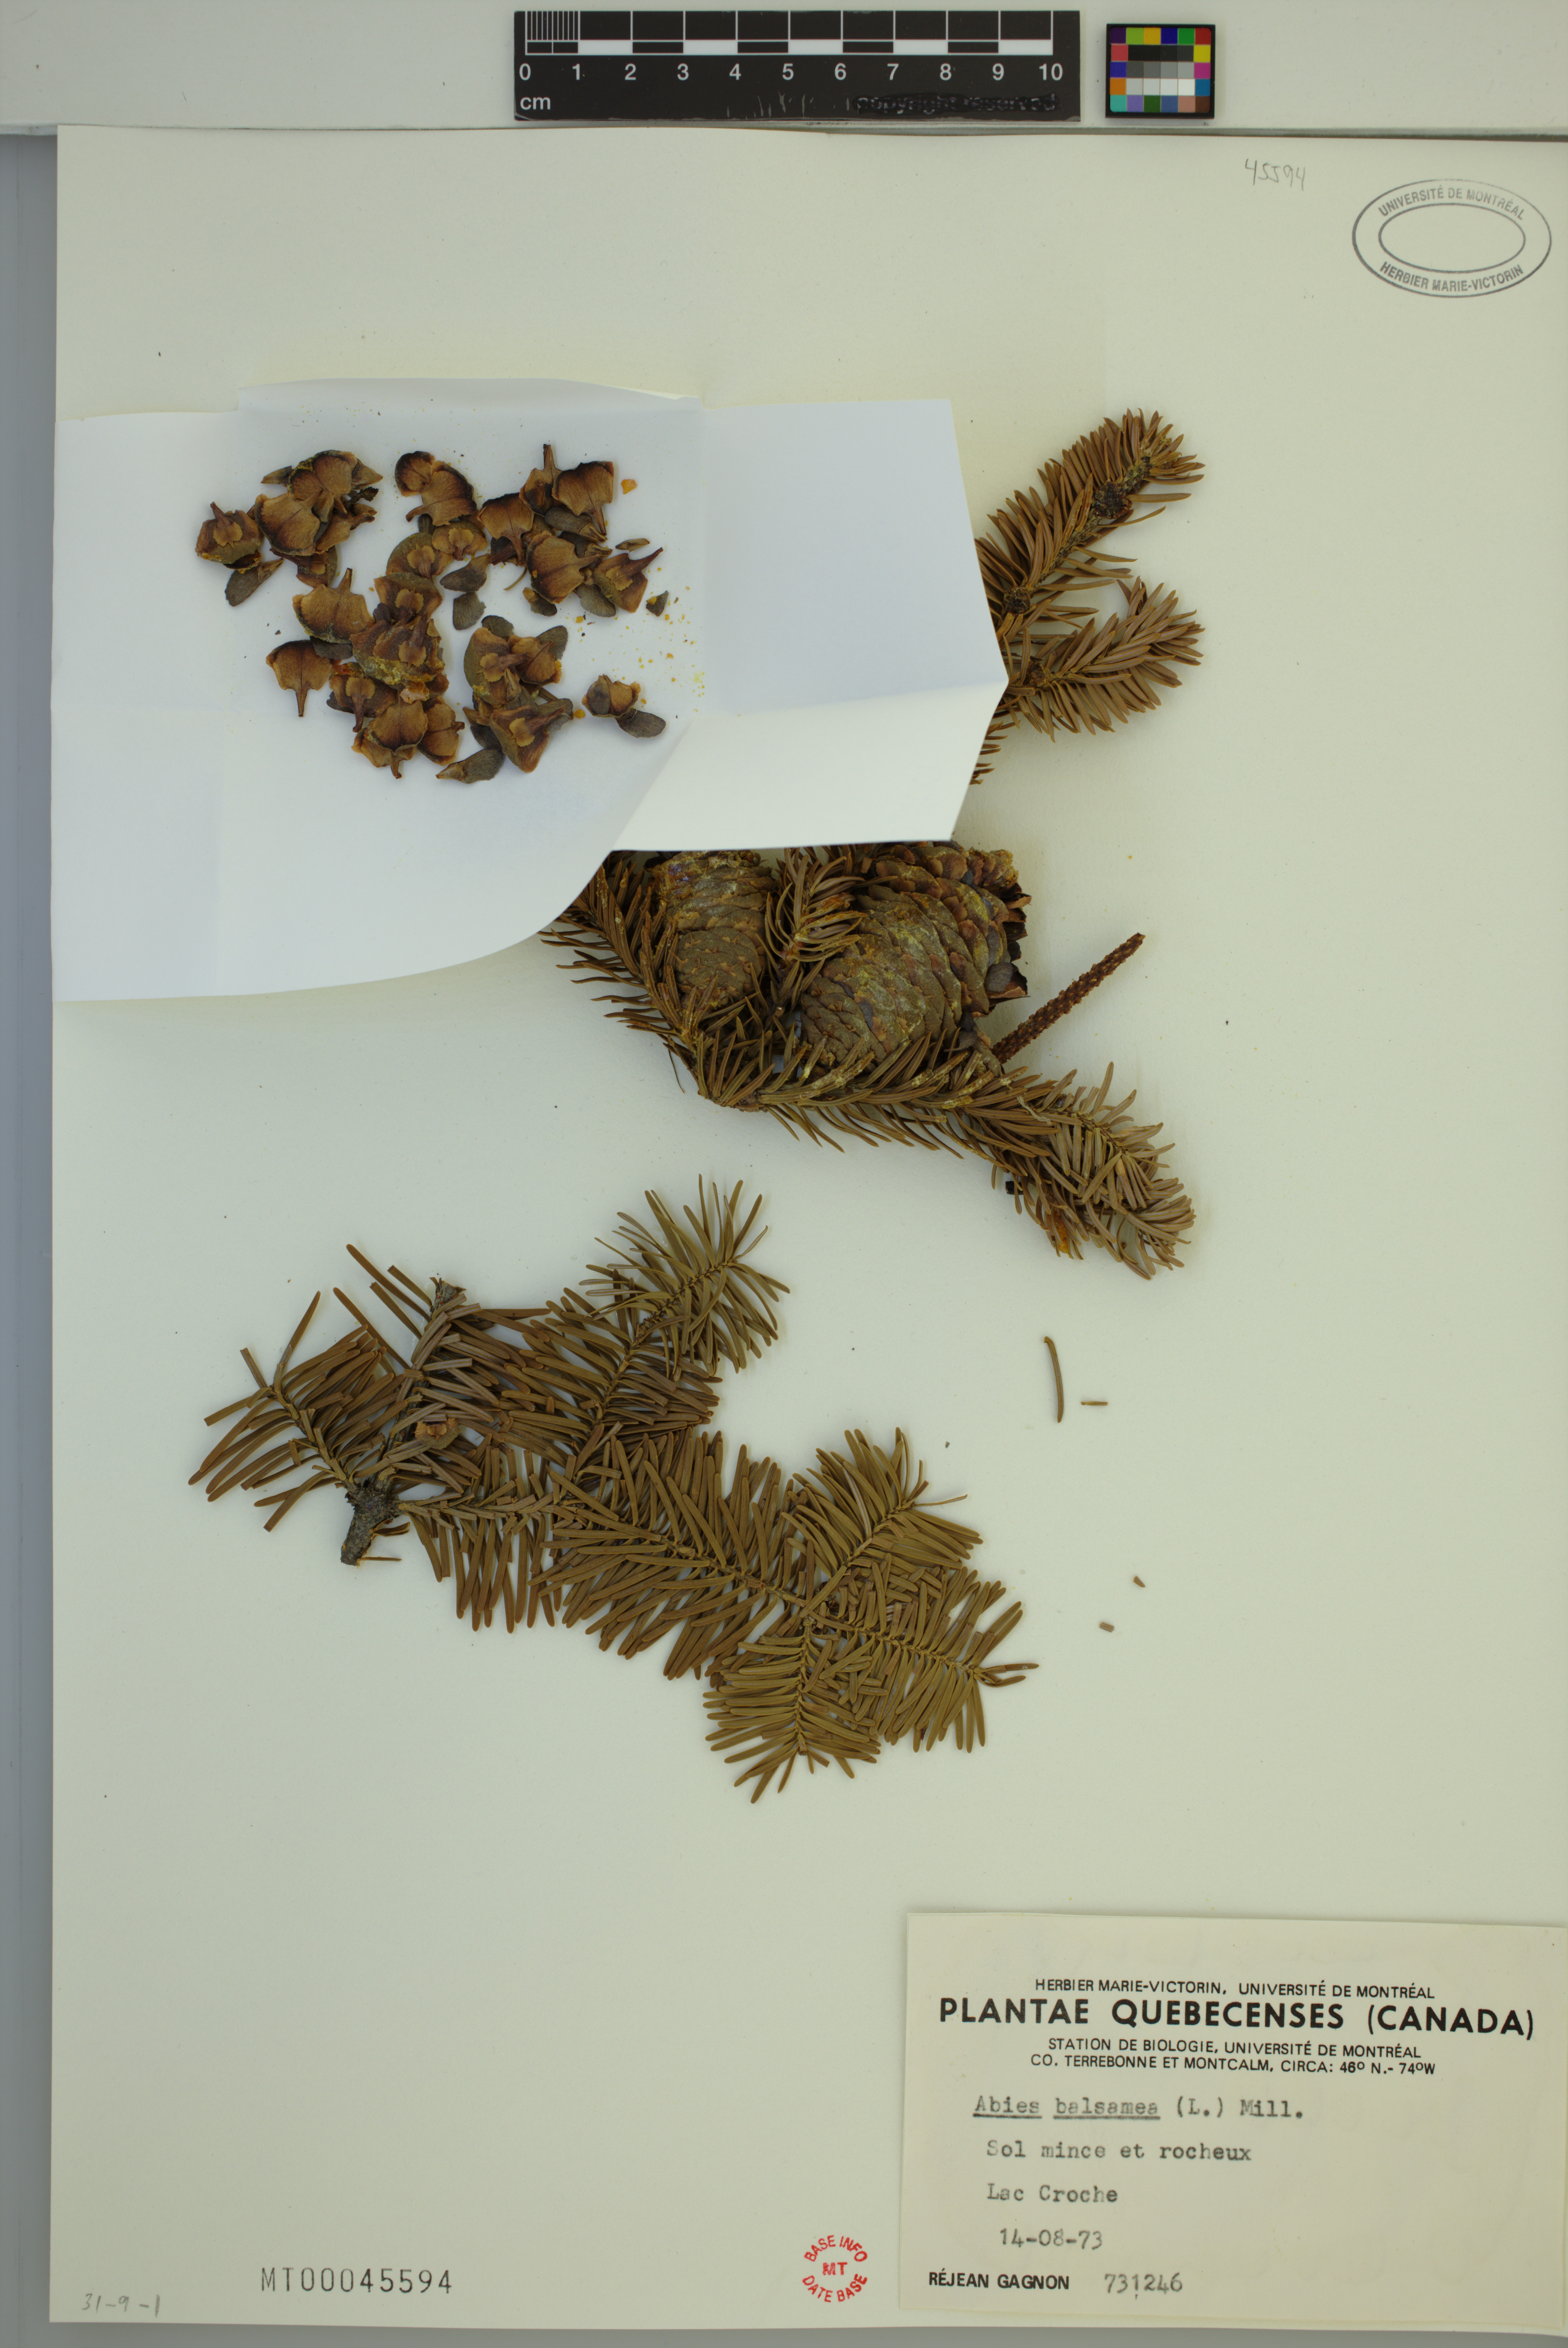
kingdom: Plantae
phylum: Tracheophyta
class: Pinopsida
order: Pinales
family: Pinaceae
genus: Abies
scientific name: Abies balsamea
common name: Balsam fir
